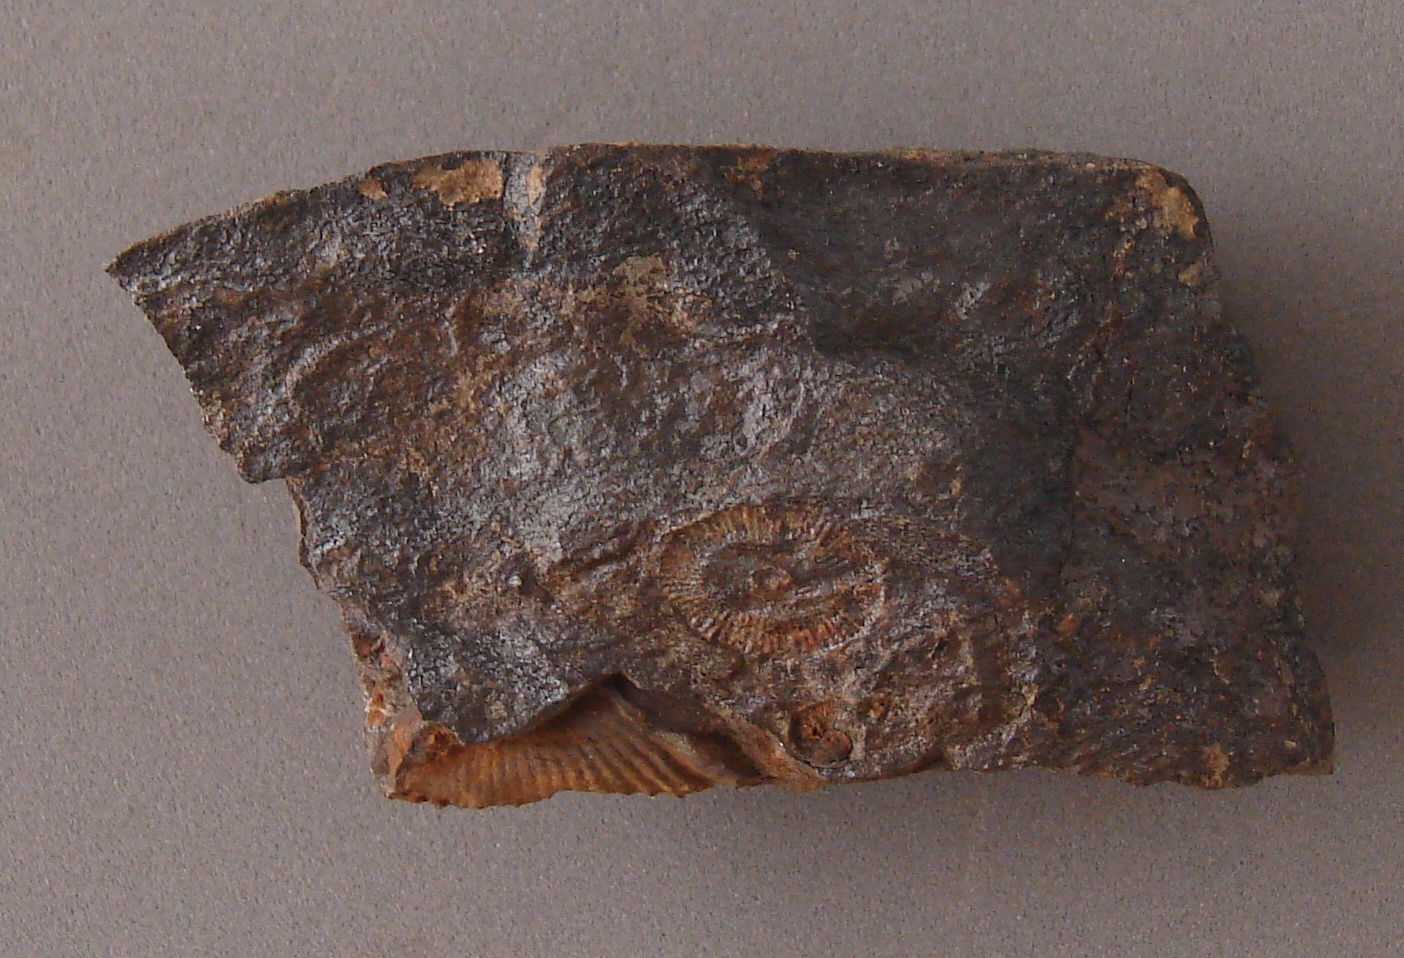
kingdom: Animalia
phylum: Echinodermata
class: Crinoidea
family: Melocrinitidae
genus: Ctenocrinus
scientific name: Ctenocrinus
